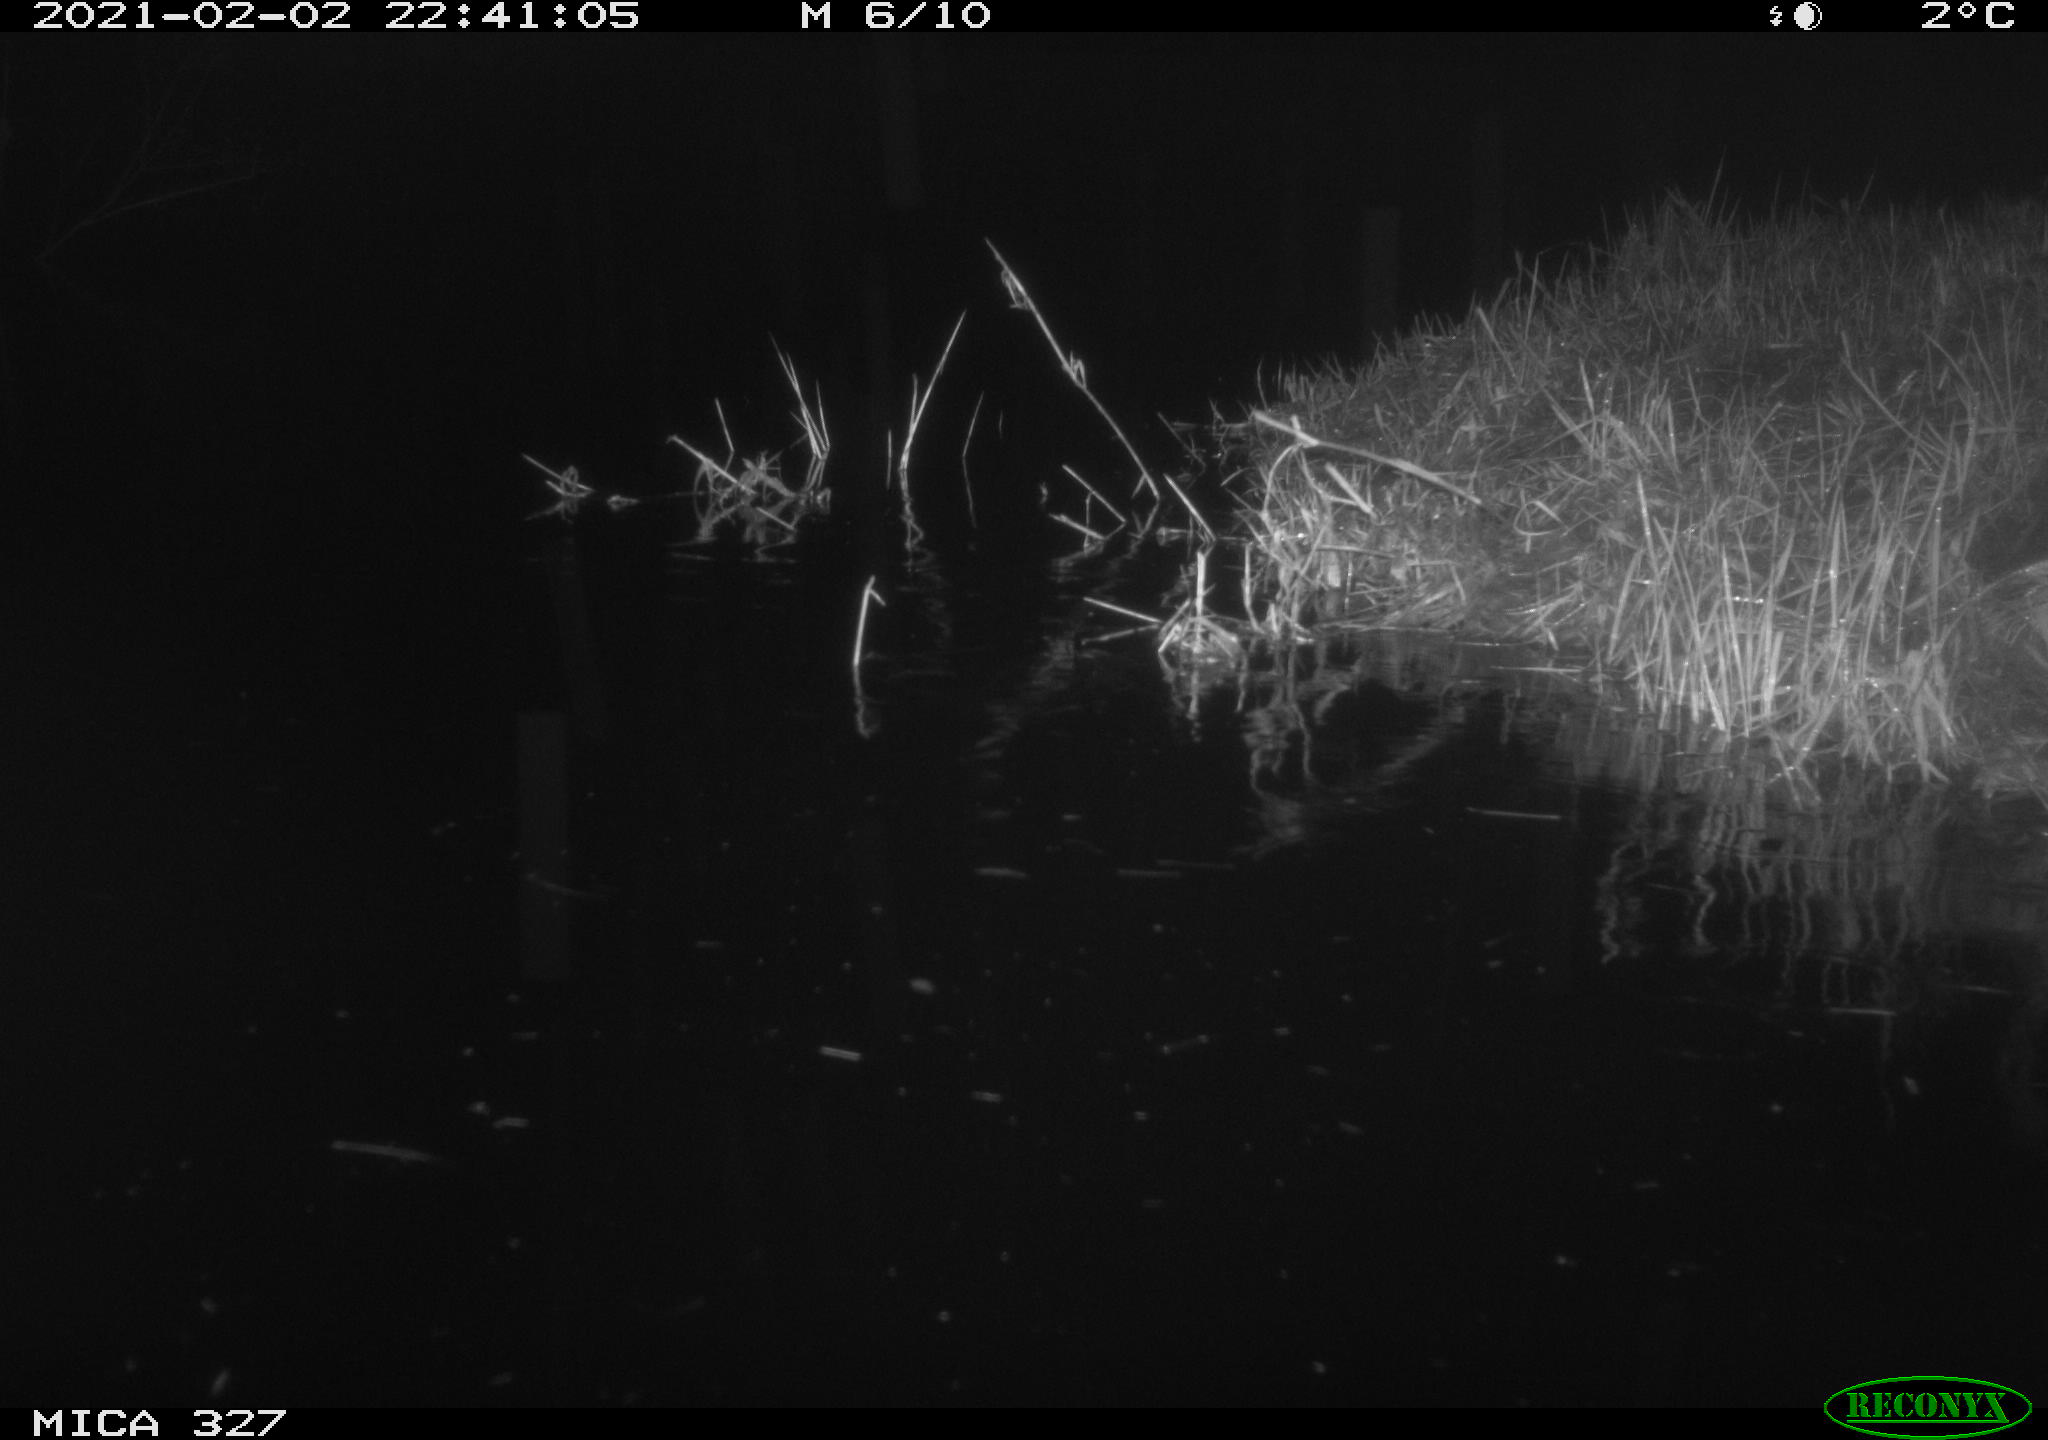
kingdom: Animalia
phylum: Chordata
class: Mammalia
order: Rodentia
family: Cricetidae
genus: Ondatra
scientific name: Ondatra zibethicus
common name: Muskrat
